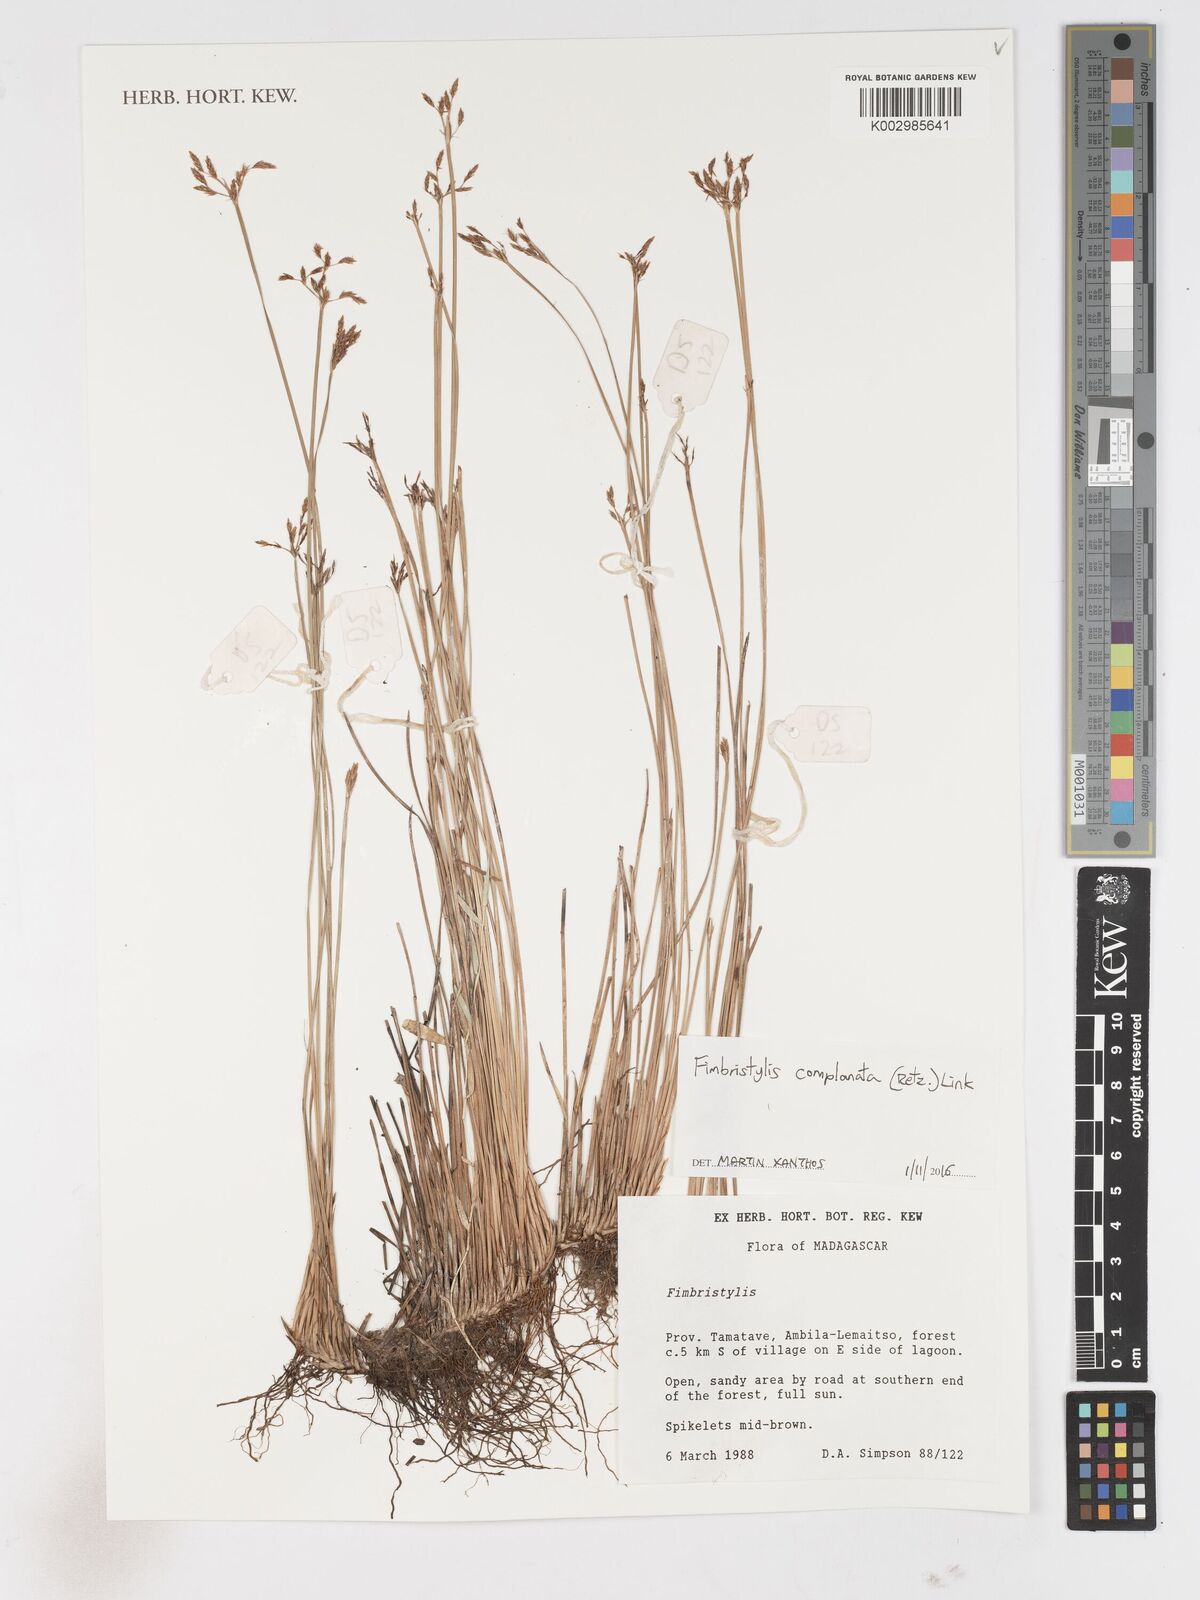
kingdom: Plantae
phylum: Tracheophyta
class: Liliopsida
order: Poales
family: Cyperaceae
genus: Fimbristylis
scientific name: Fimbristylis complanata
